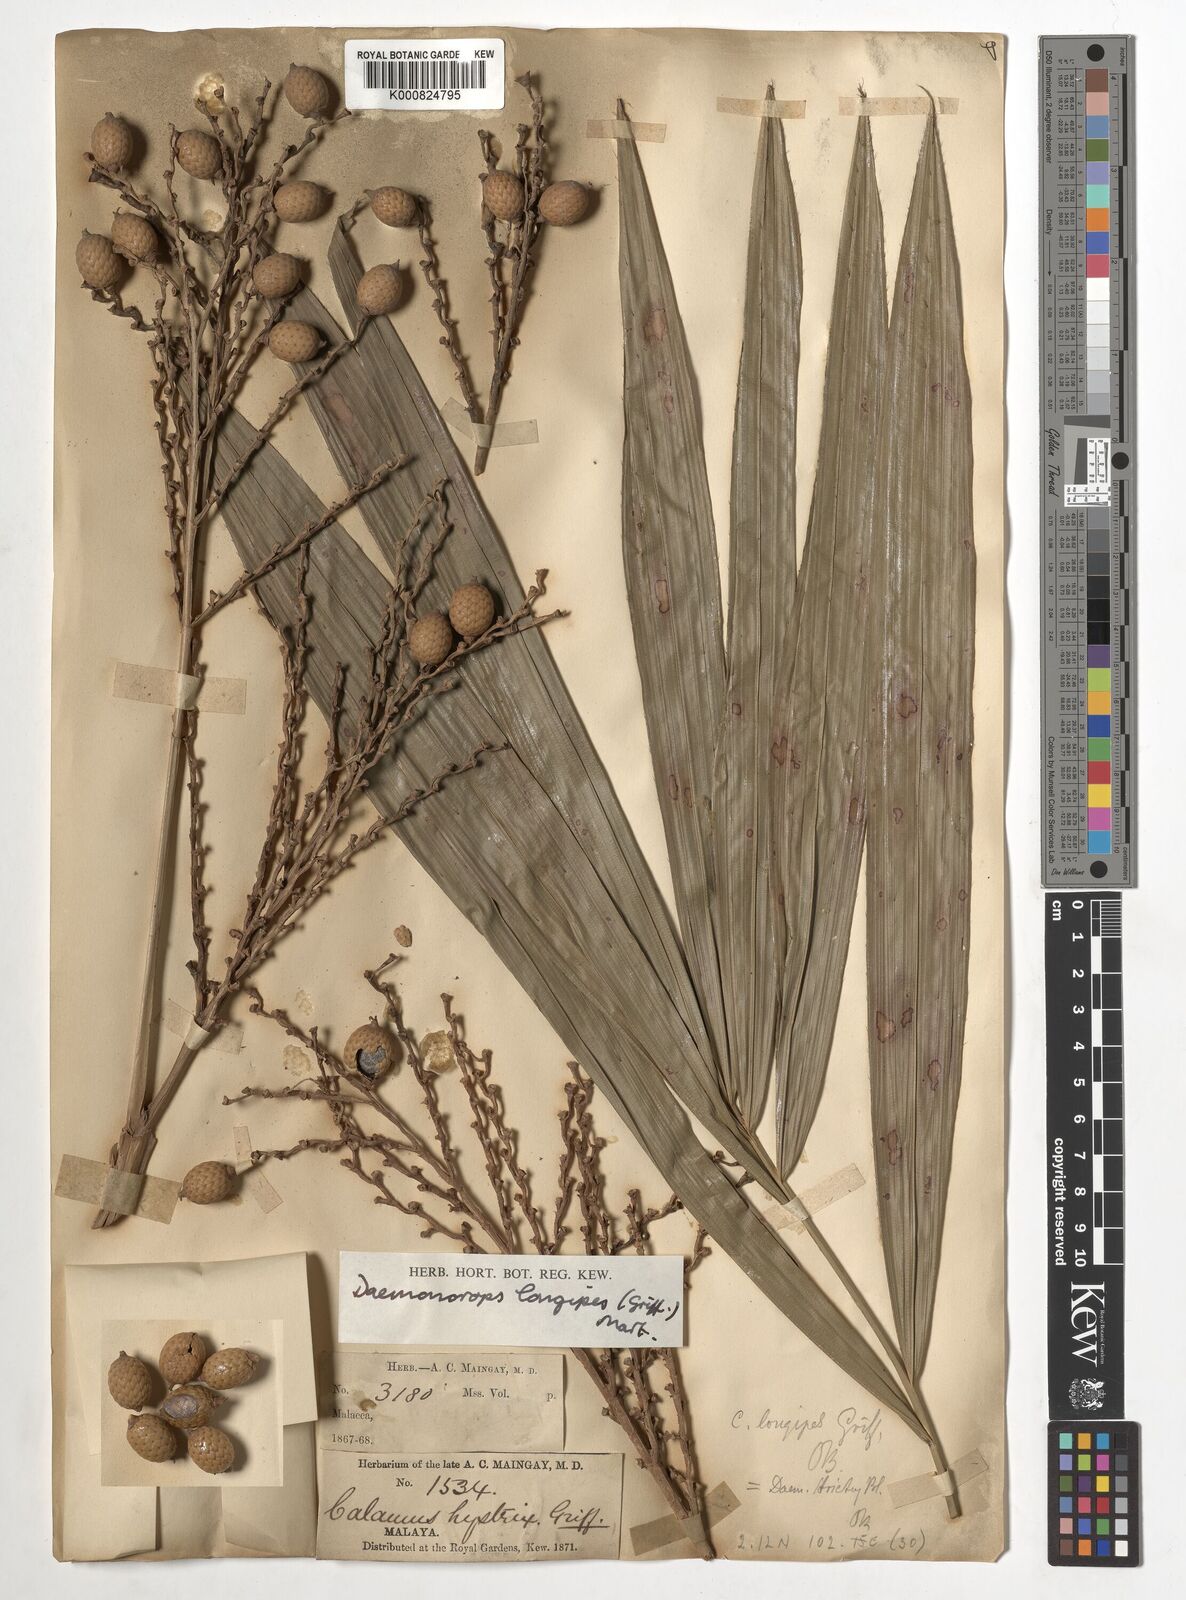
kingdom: Plantae
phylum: Tracheophyta
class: Liliopsida
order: Arecales
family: Arecaceae
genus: Calamus
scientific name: Calamus longipes
